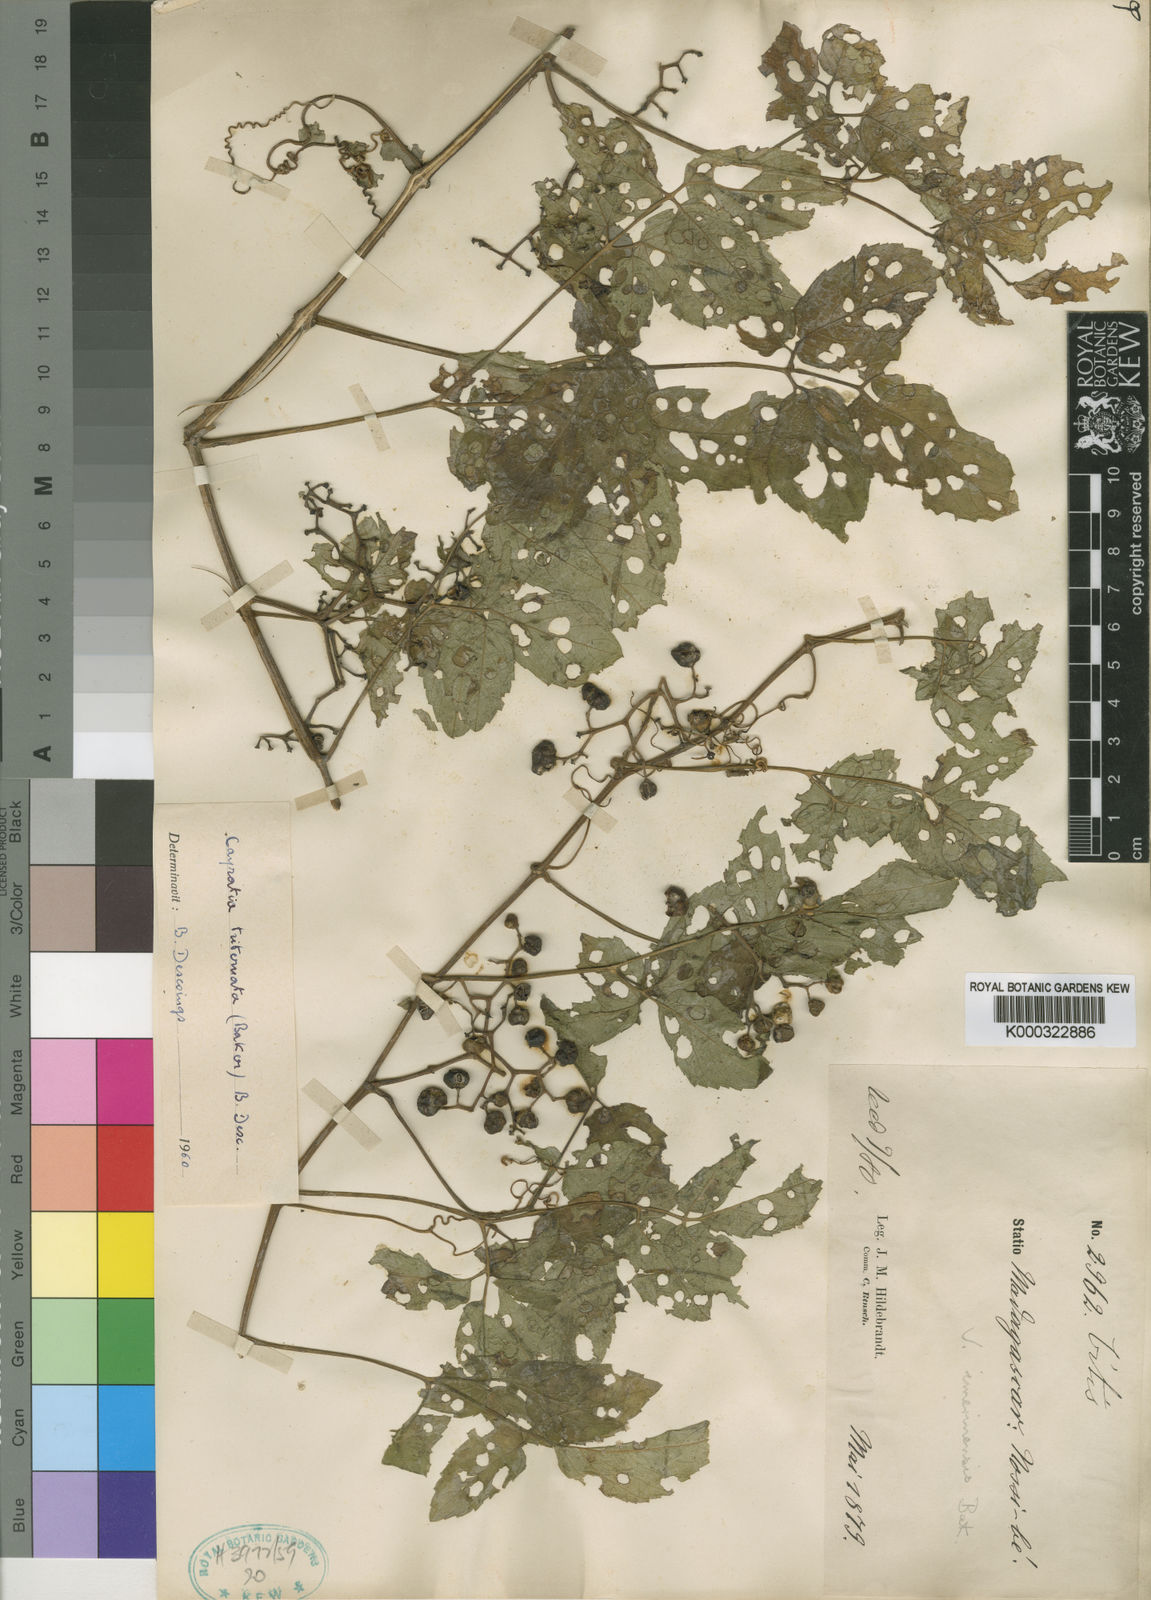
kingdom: Plantae
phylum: Tracheophyta
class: Magnoliopsida
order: Vitales
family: Vitaceae
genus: Afrocayratia
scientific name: Afrocayratia triternata
